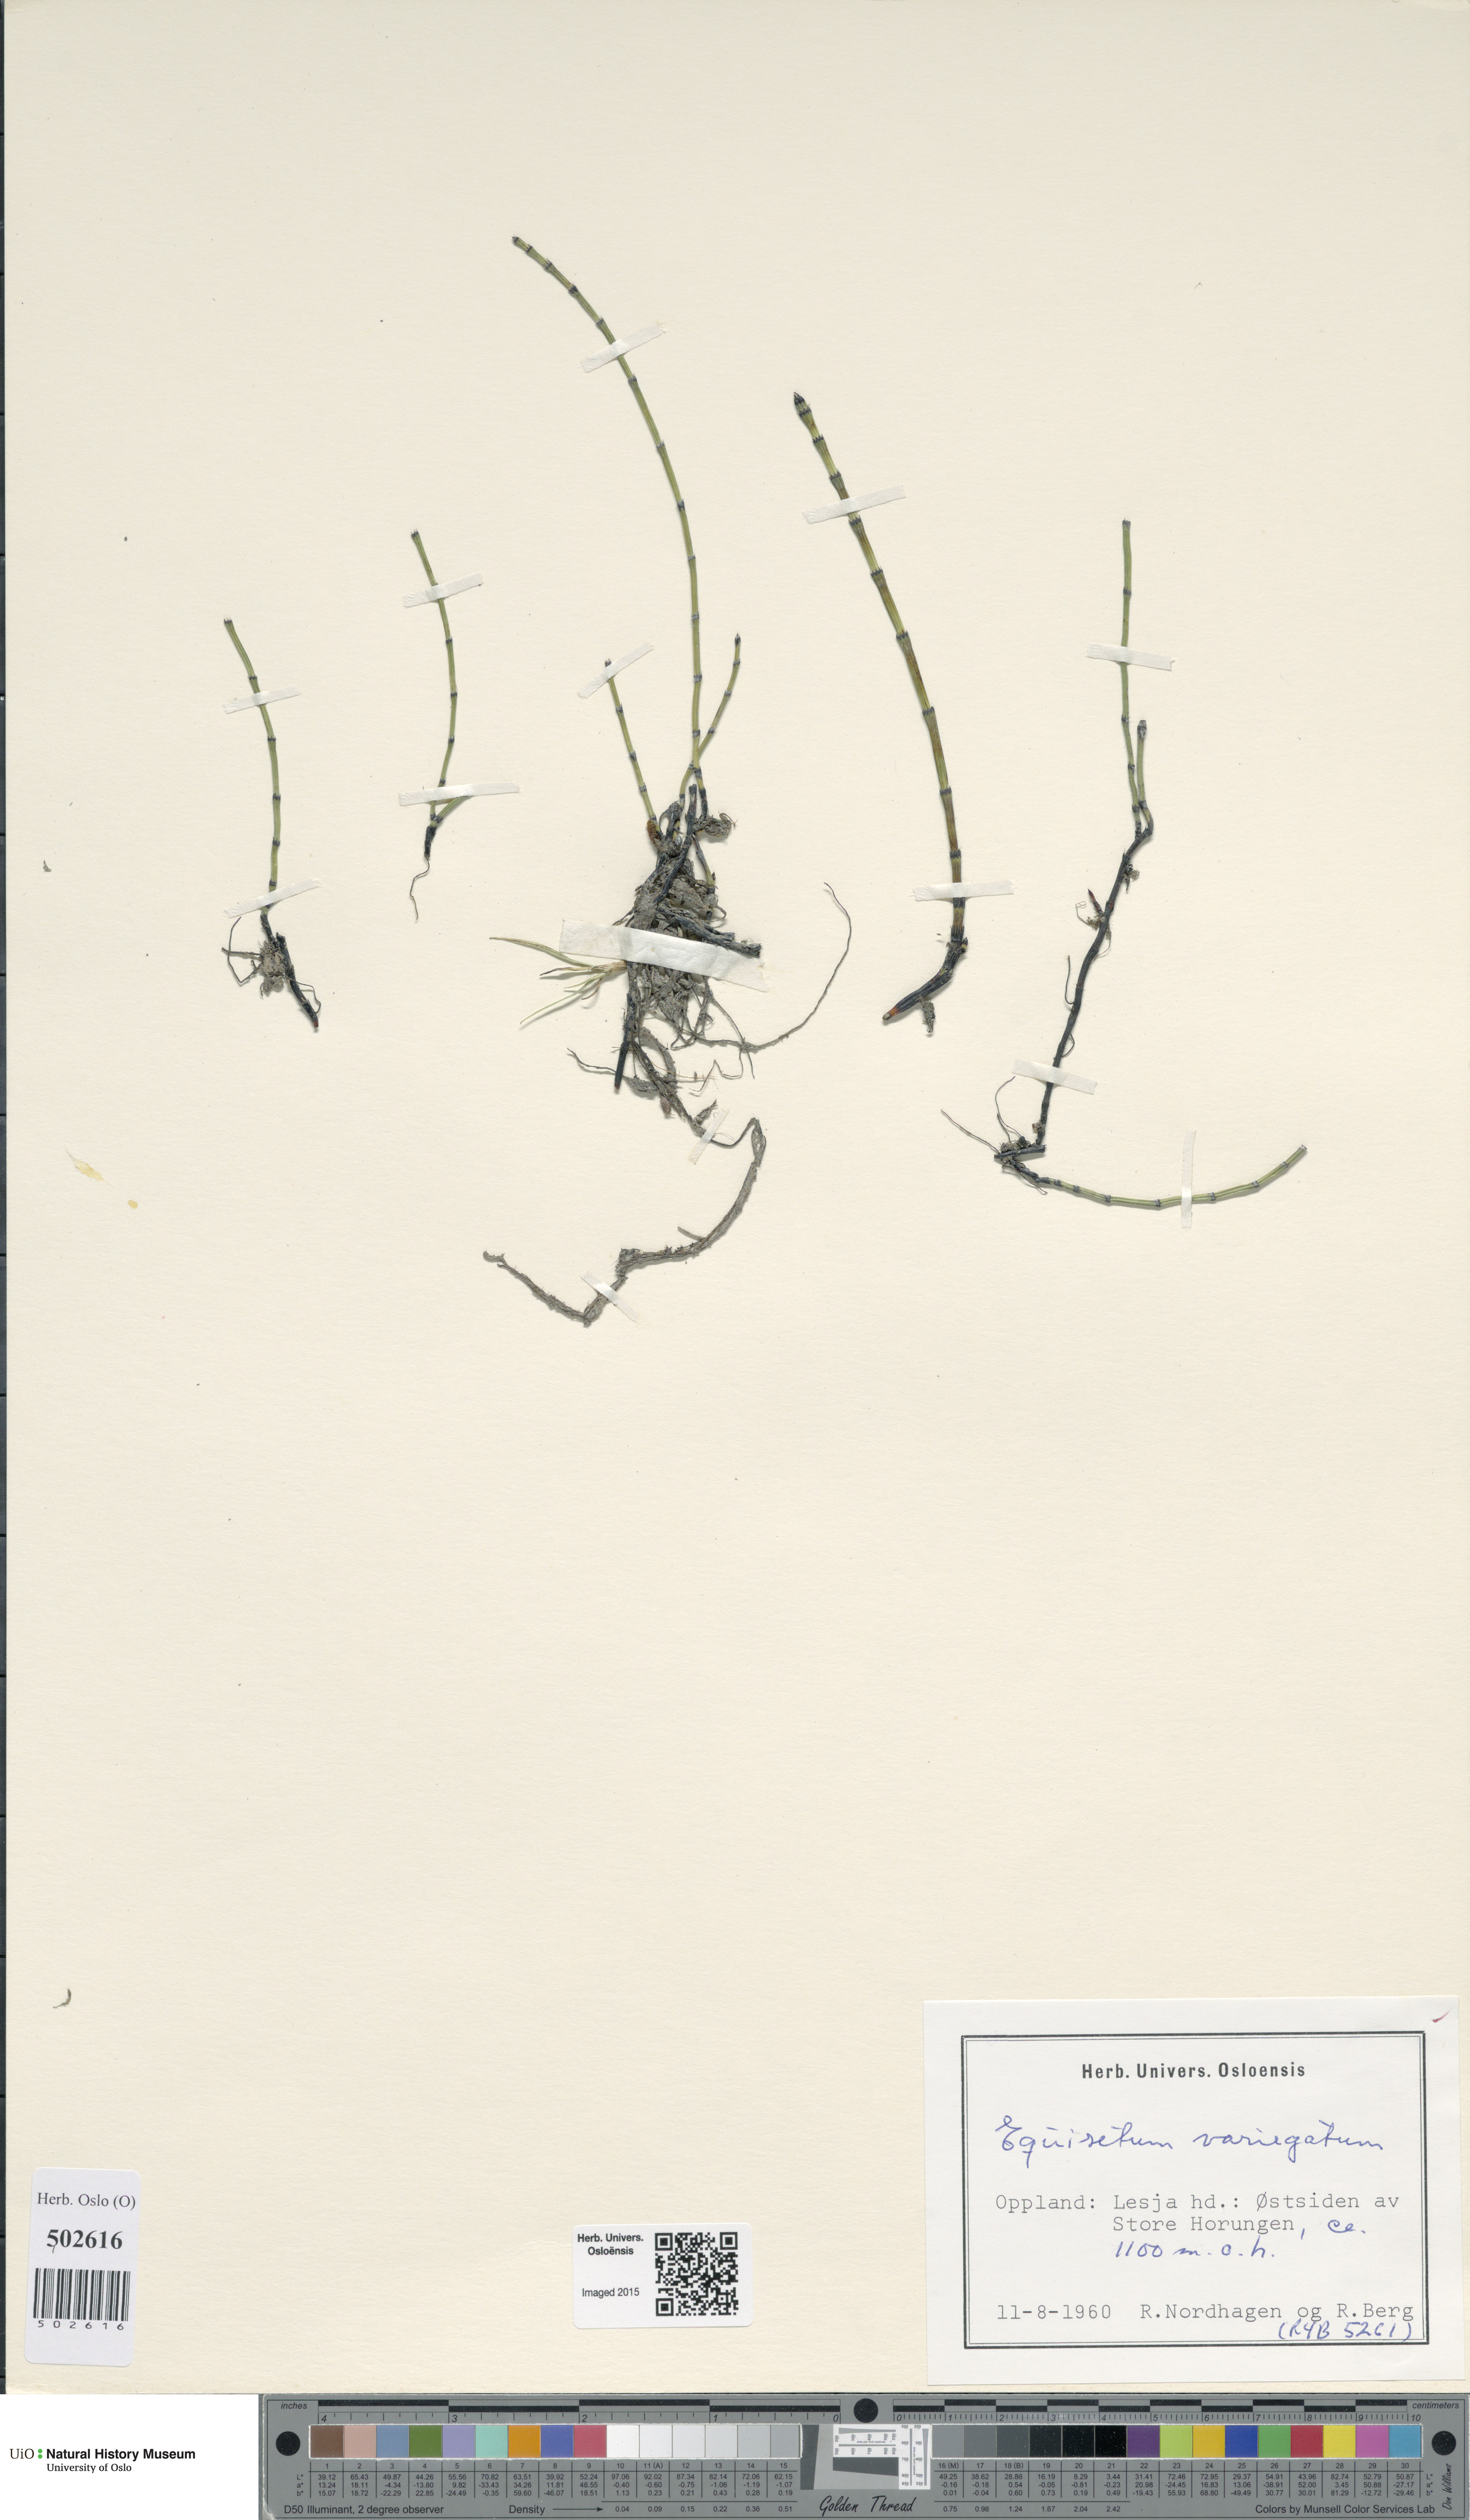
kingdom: Plantae
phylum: Tracheophyta
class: Polypodiopsida
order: Equisetales
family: Equisetaceae
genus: Equisetum
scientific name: Equisetum variegatum
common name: Variegated horsetail
